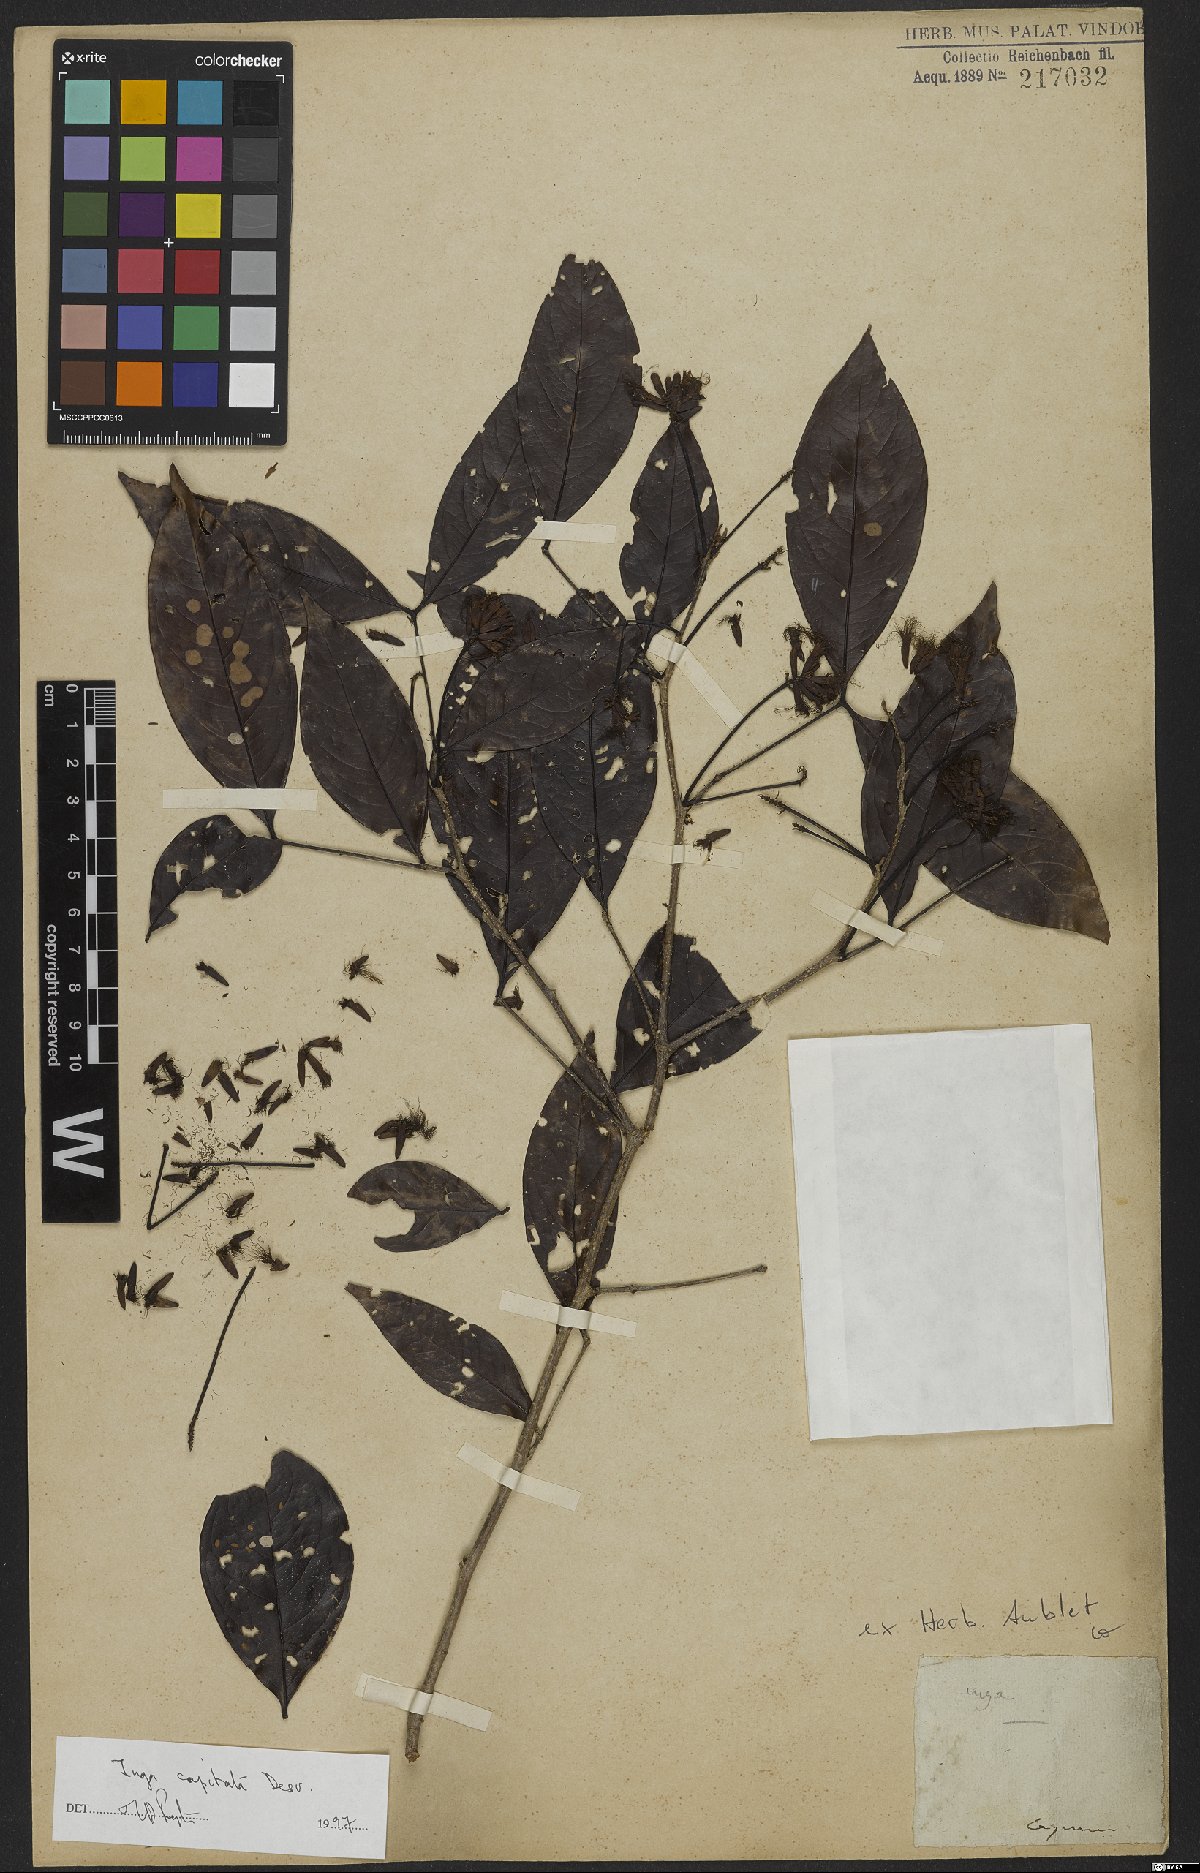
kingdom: Plantae
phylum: Tracheophyta
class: Magnoliopsida
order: Fabales
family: Fabaceae
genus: Inga
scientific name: Inga capitata
